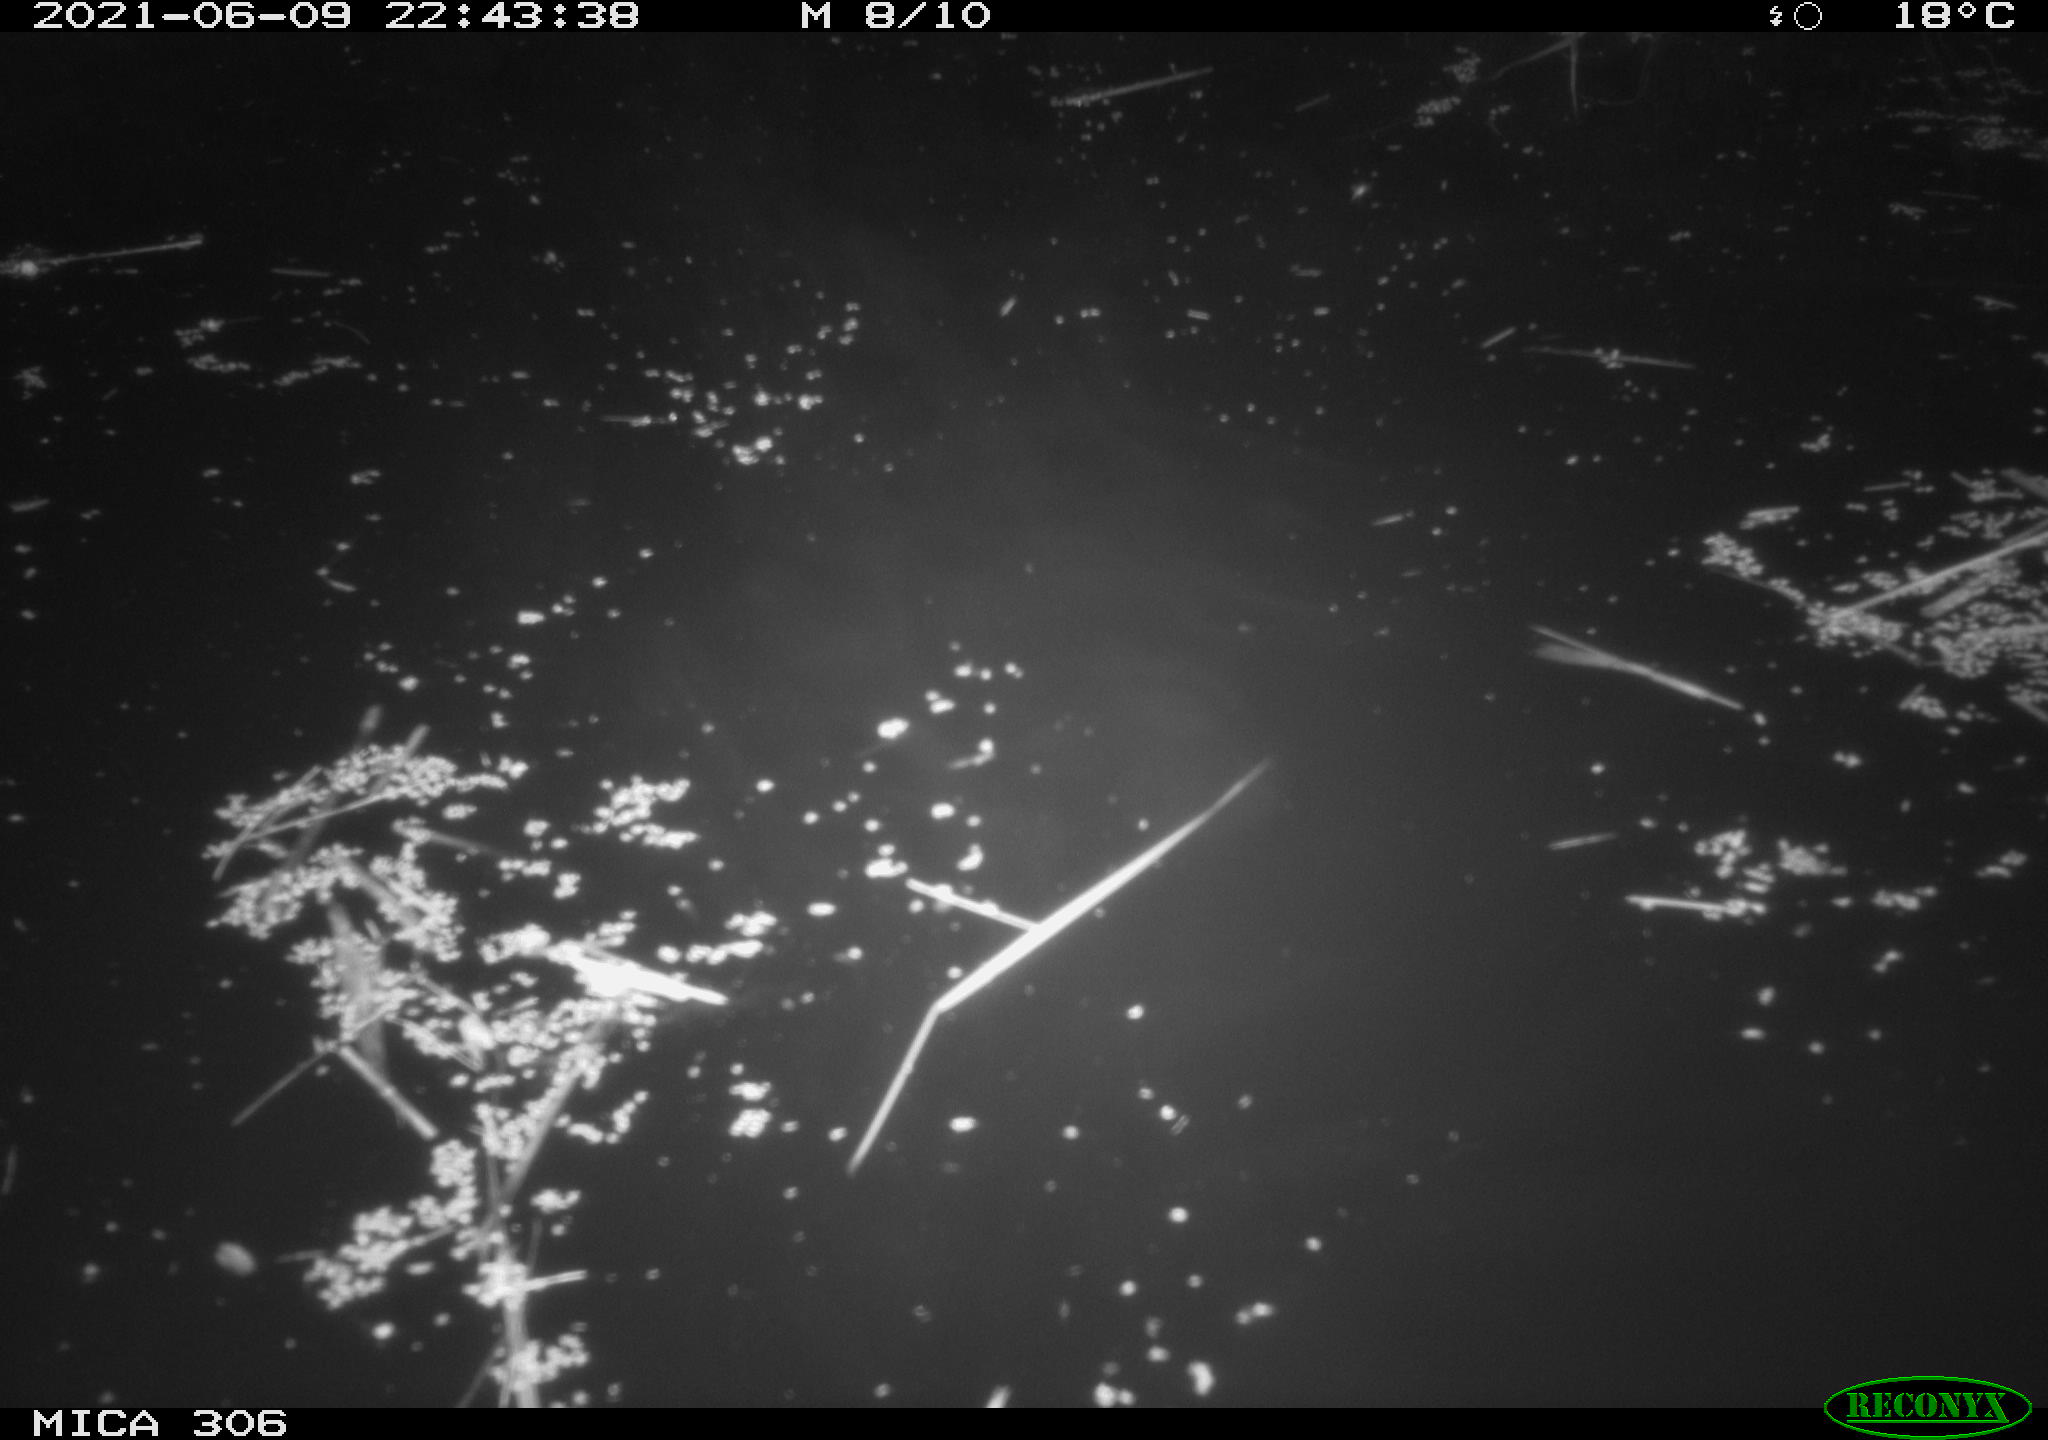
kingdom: Animalia
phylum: Chordata
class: Mammalia
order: Rodentia
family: Cricetidae
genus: Ondatra
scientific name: Ondatra zibethicus
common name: Muskrat
